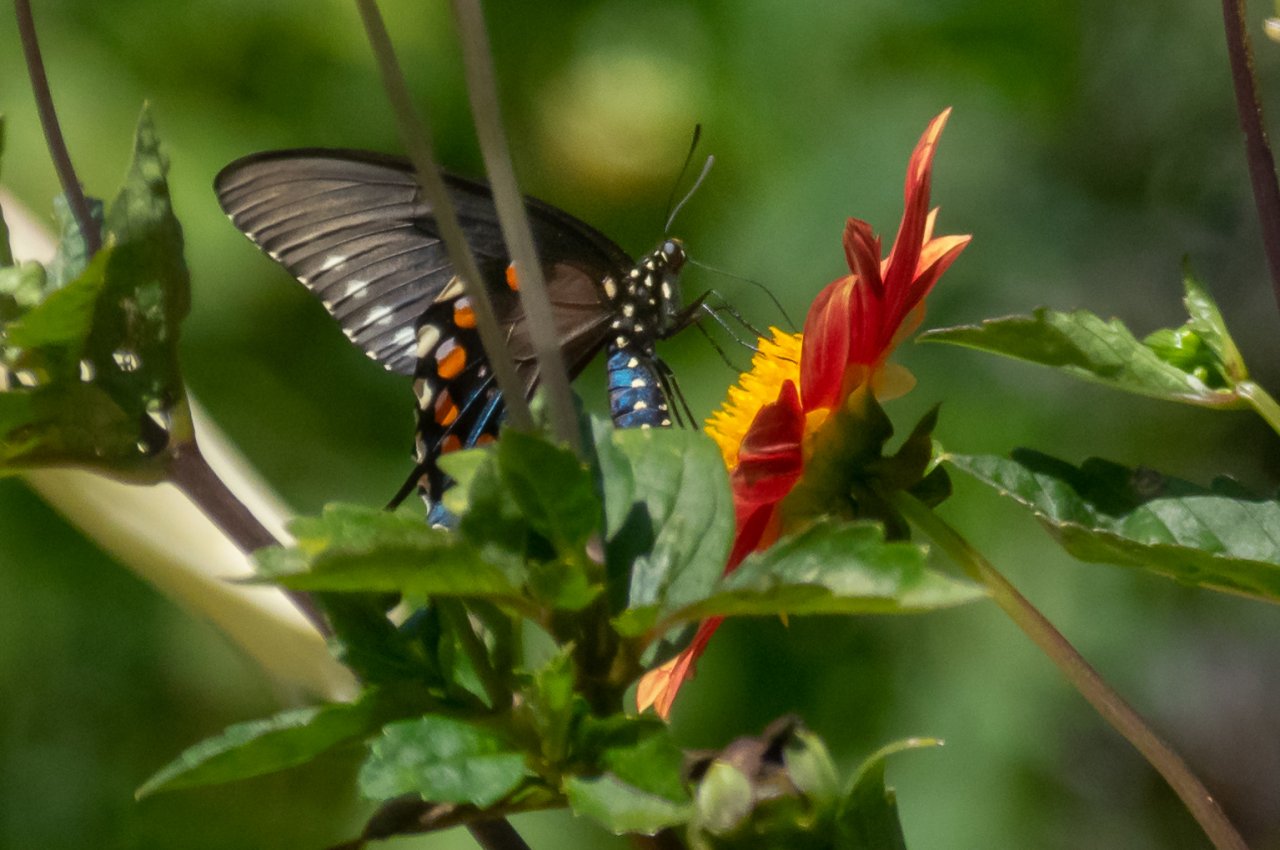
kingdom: Animalia
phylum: Arthropoda
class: Insecta
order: Lepidoptera
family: Papilionidae
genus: Battus
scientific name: Battus philenor
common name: Pipevine Swallowtail
